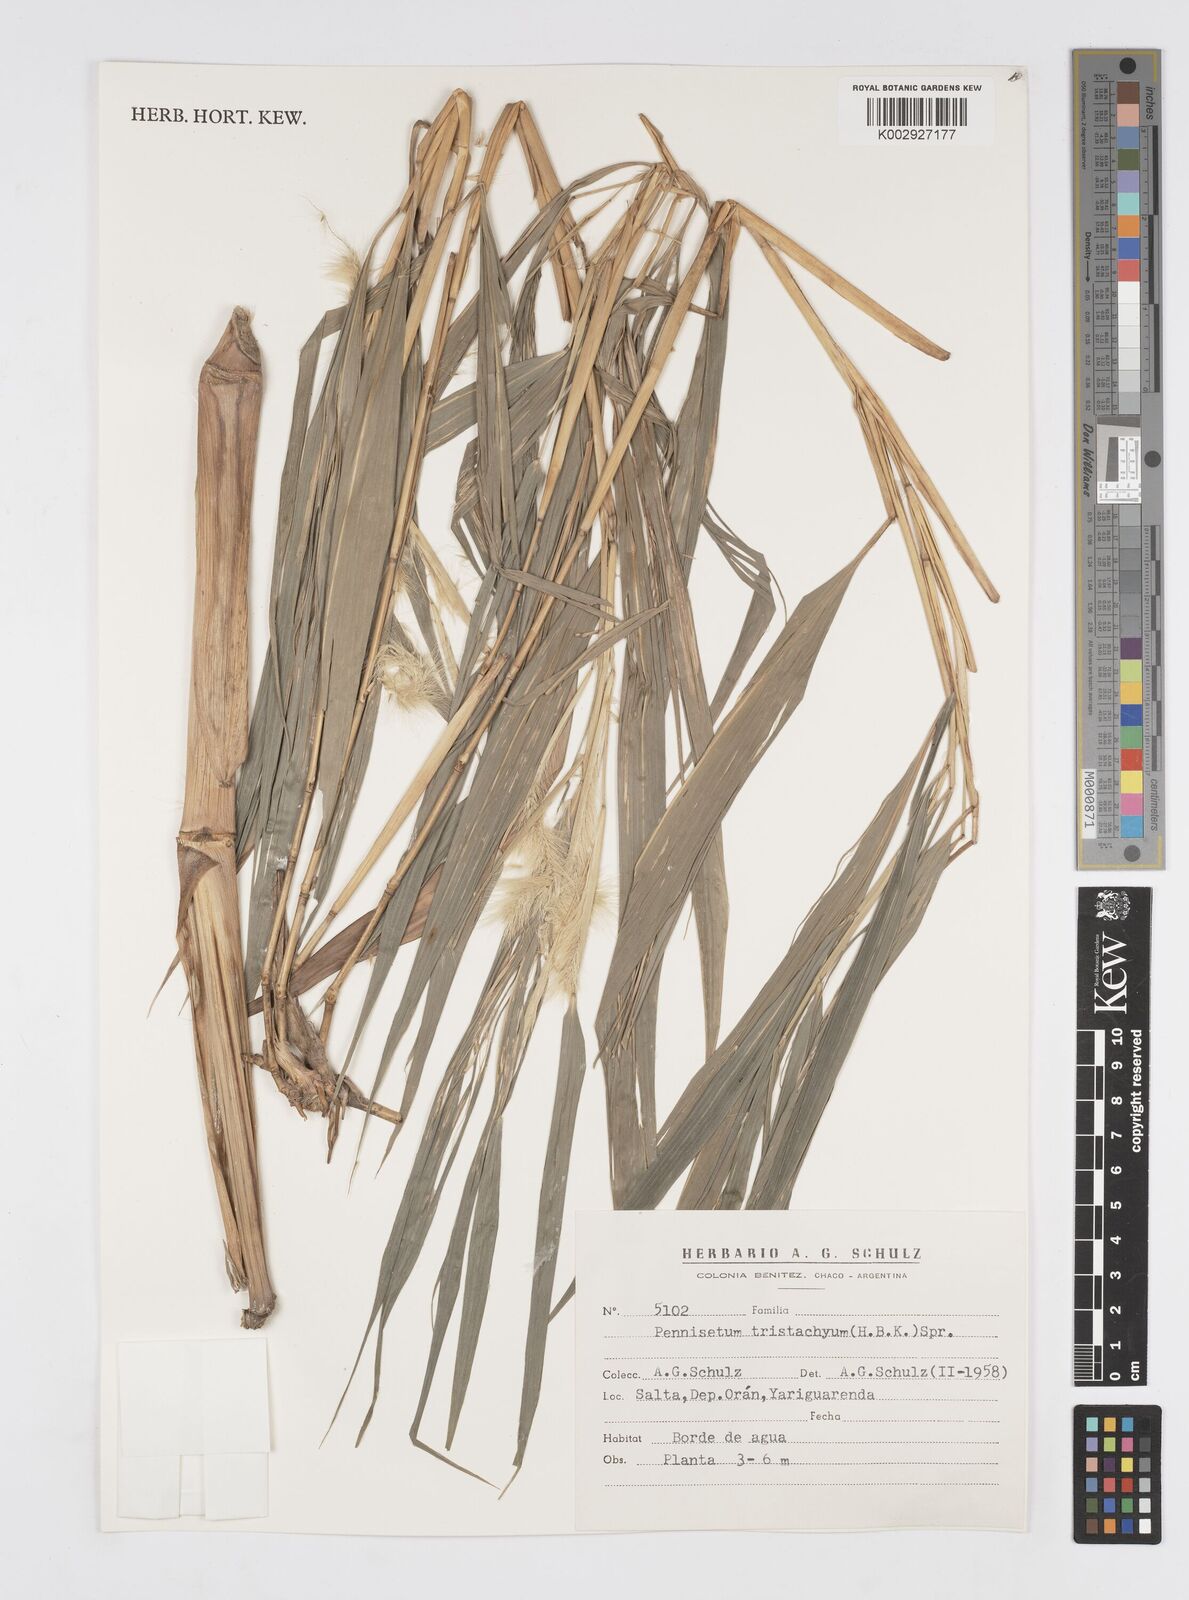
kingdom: Plantae
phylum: Tracheophyta
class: Liliopsida
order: Poales
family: Poaceae
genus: Cenchrus
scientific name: Cenchrus tristachyus
